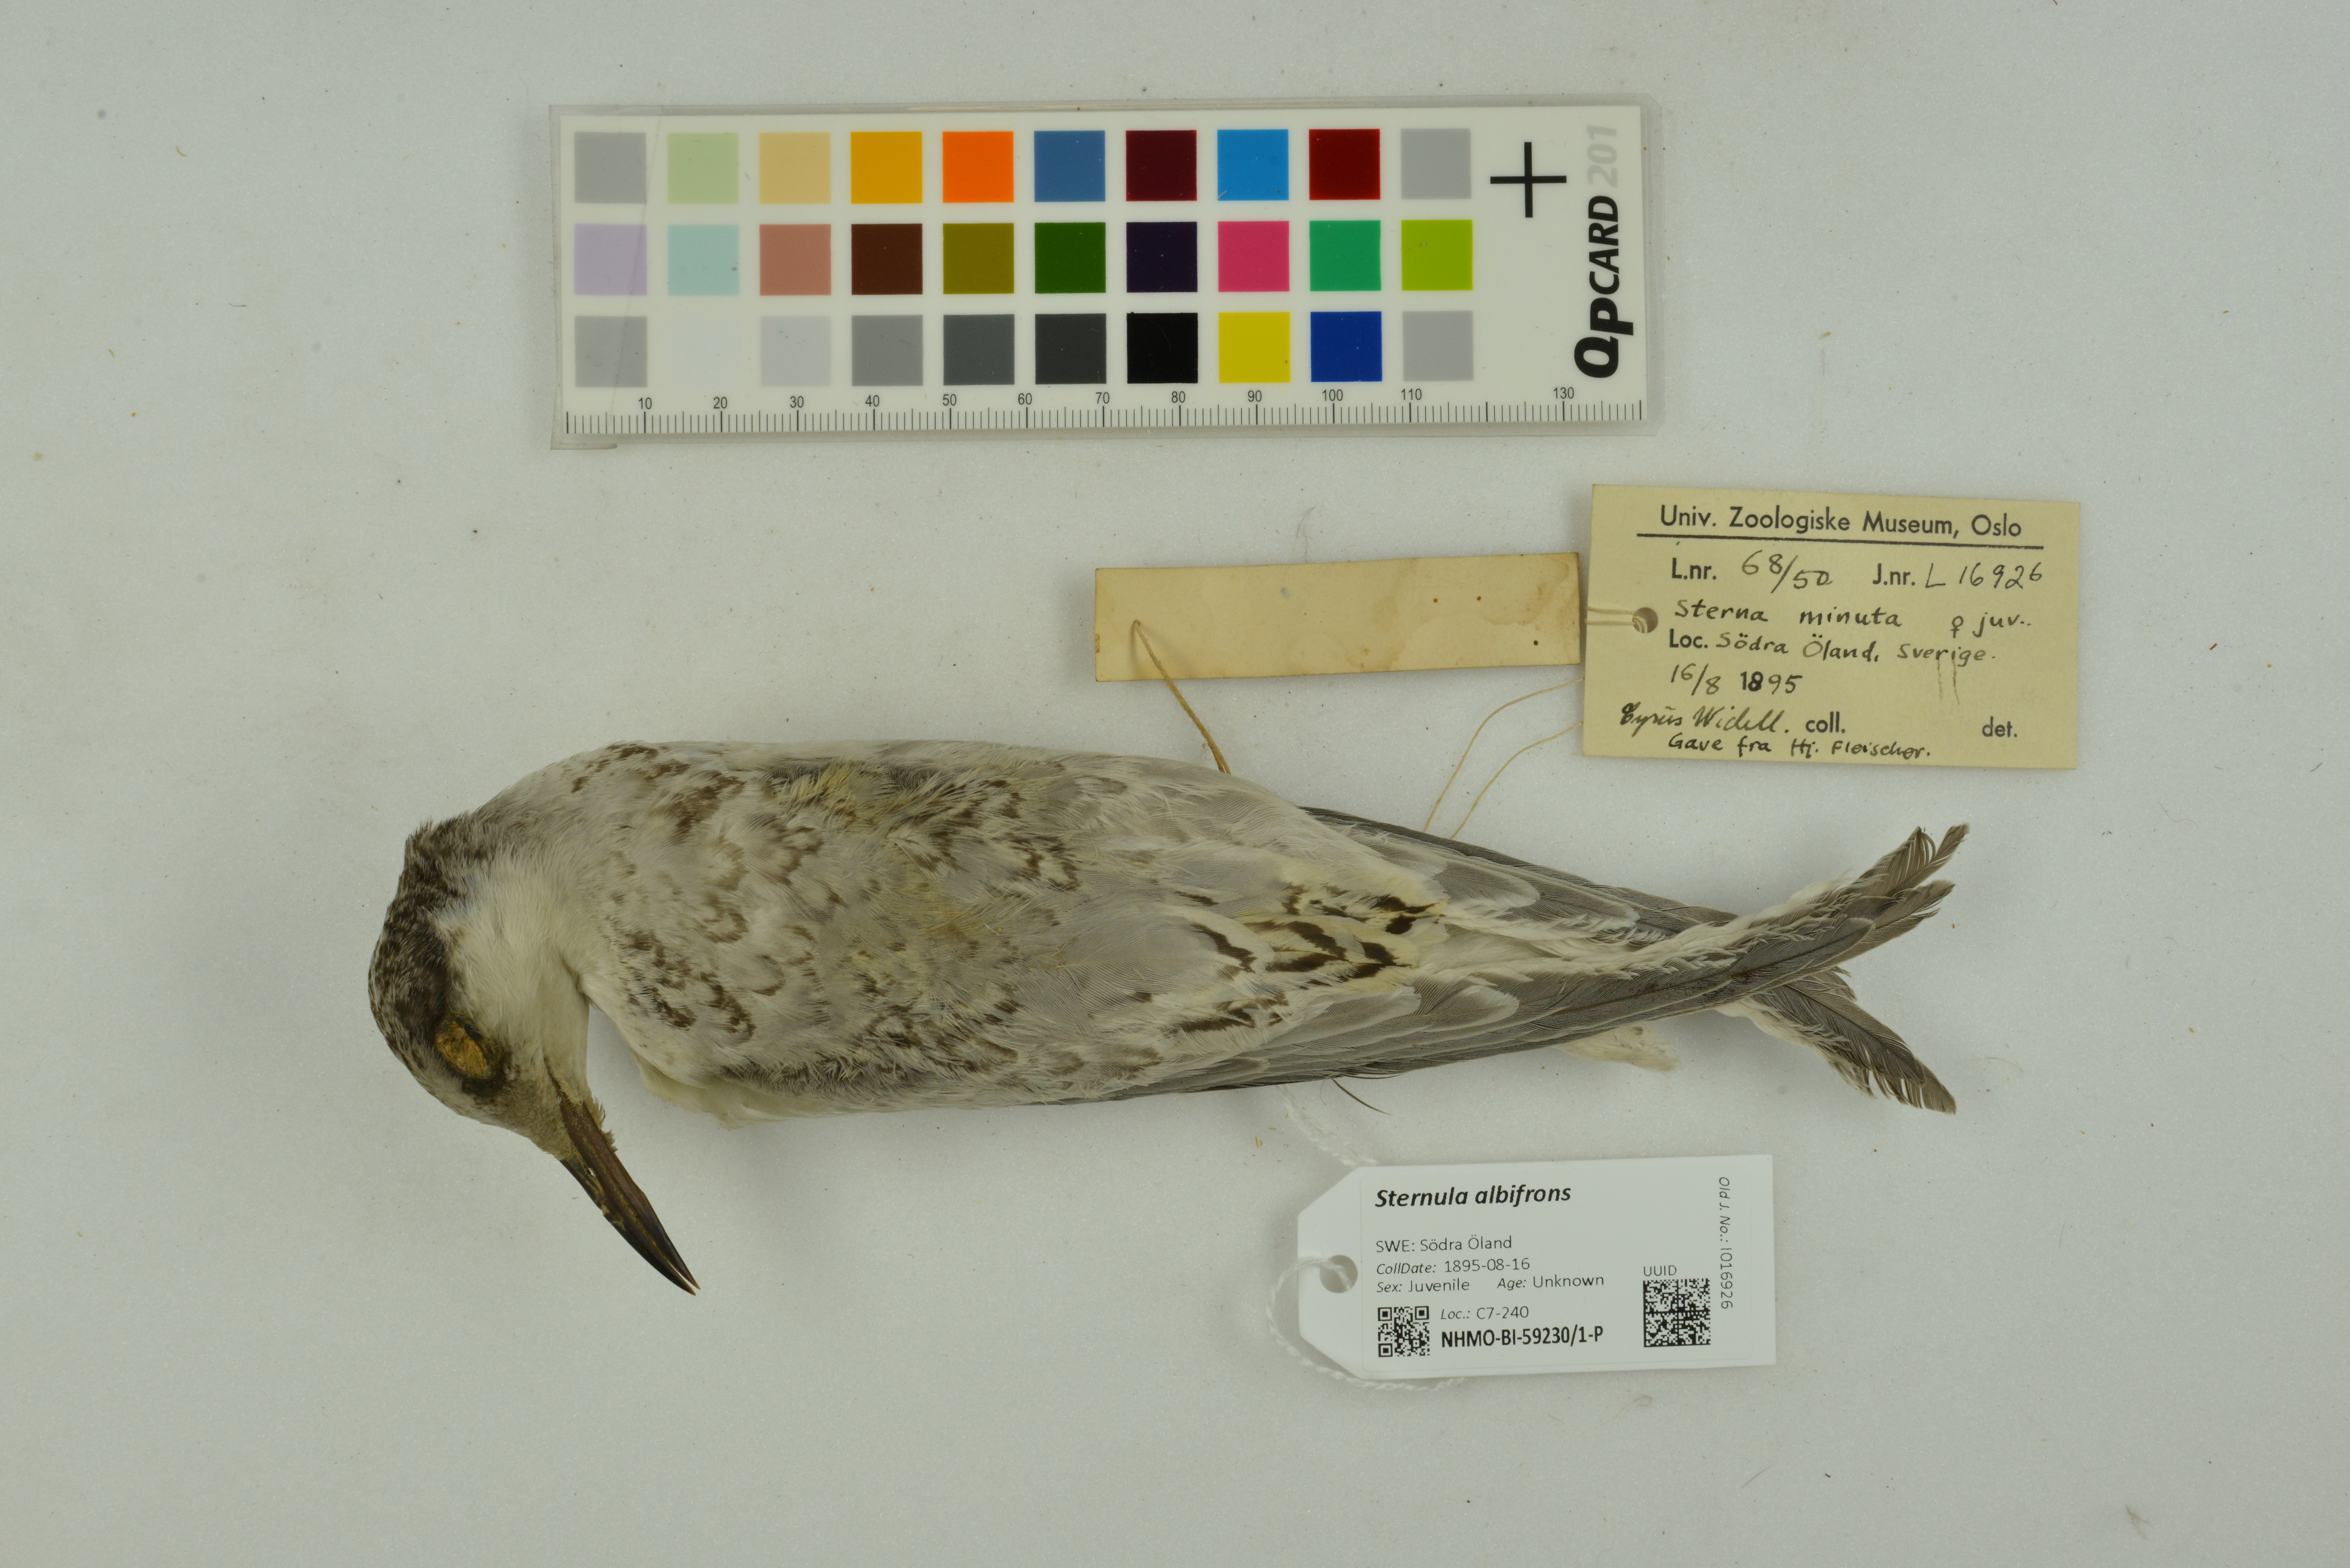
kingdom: Animalia
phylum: Chordata
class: Aves
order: Charadriiformes
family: Laridae
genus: Sternula
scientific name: Sternula albifrons
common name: Little tern
